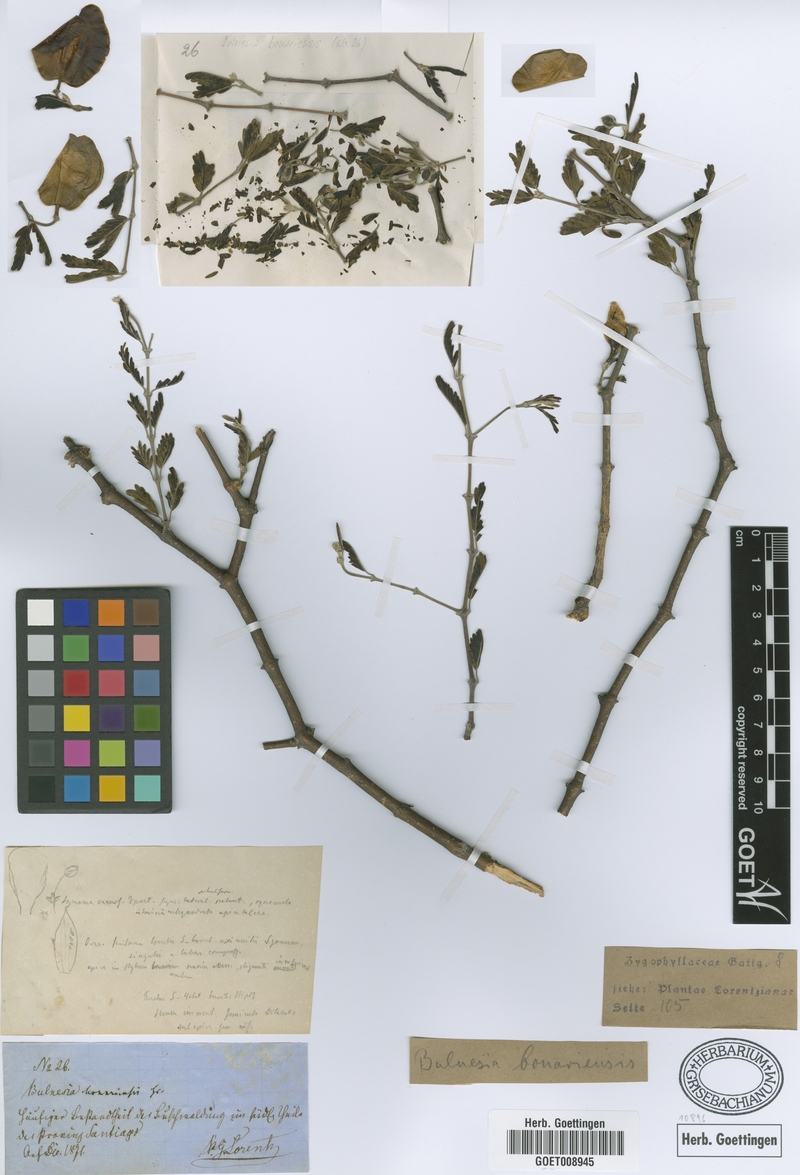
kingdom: Plantae
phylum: Tracheophyta
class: Magnoliopsida
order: Zygophyllales
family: Zygophyllaceae
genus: Gonopterodendron
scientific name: Gonopterodendron bonariense
